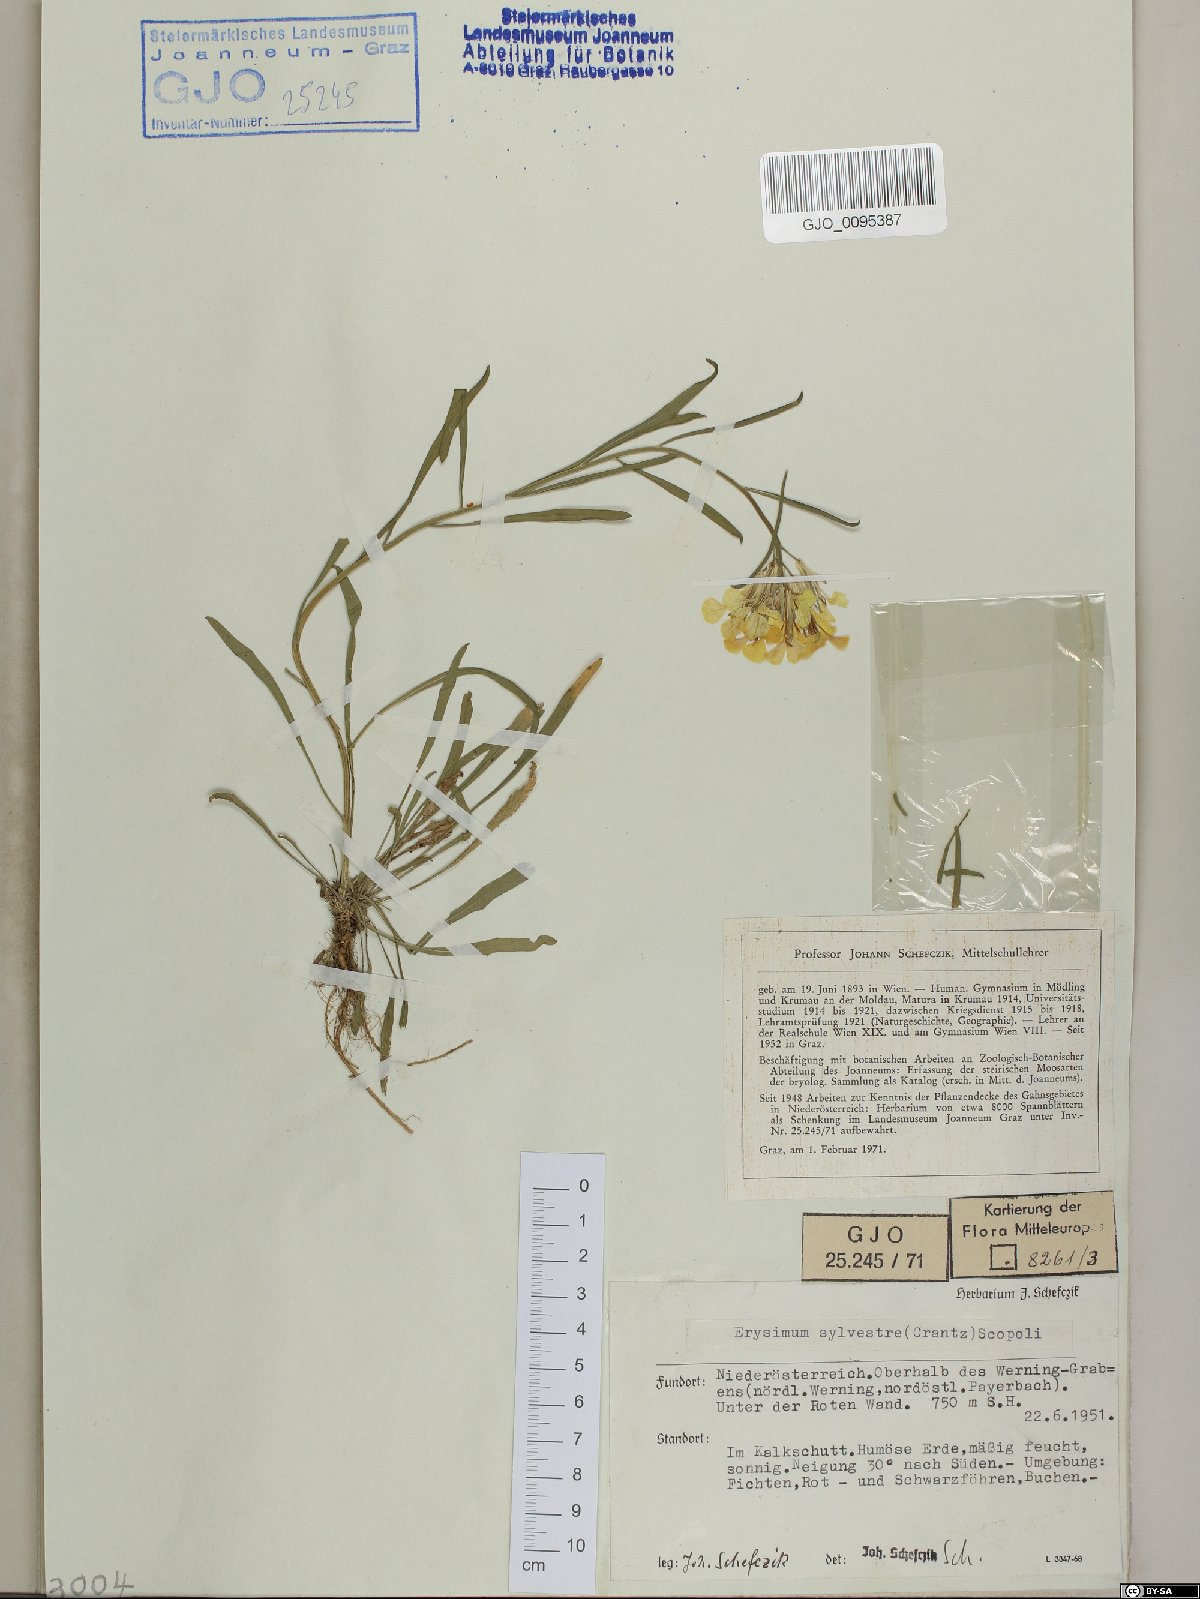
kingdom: Plantae
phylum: Tracheophyta
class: Magnoliopsida
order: Brassicales
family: Brassicaceae
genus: Erysimum
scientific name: Erysimum sylvestre
